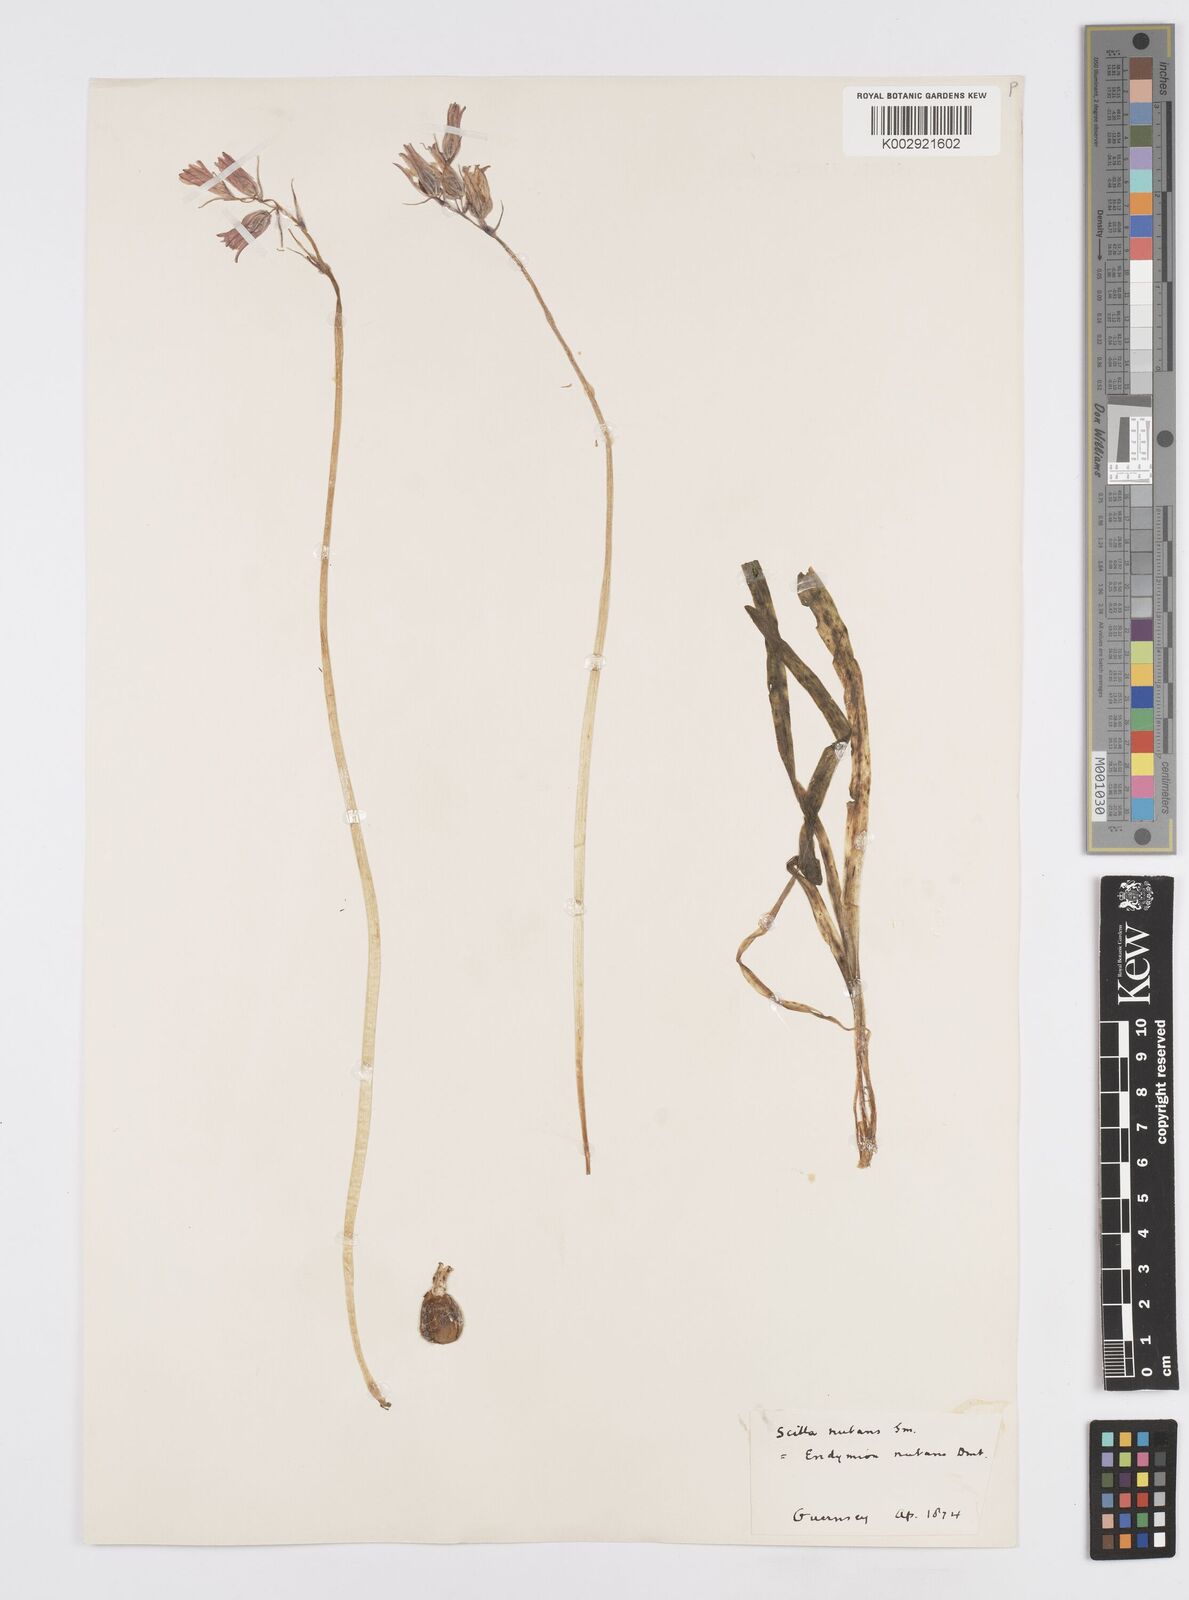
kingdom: Plantae
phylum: Tracheophyta
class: Liliopsida
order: Asparagales
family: Asparagaceae
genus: Hyacinthoides
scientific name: Hyacinthoides non-scripta
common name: Bluebell
